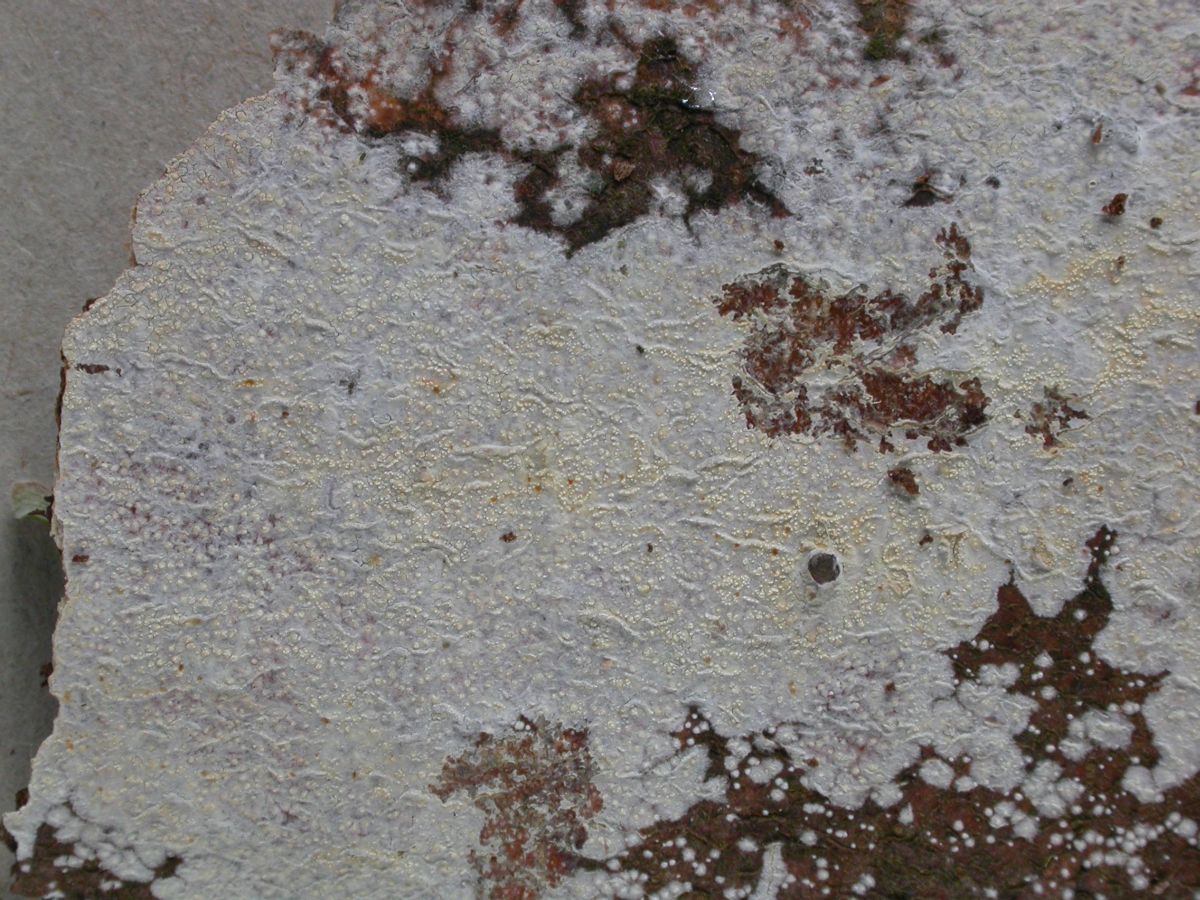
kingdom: Fungi
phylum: Basidiomycota
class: Agaricomycetes
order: Corticiales
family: Corticiaceae
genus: Lyomyces
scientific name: Lyomyces crustosus
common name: vortet hyldehinde
